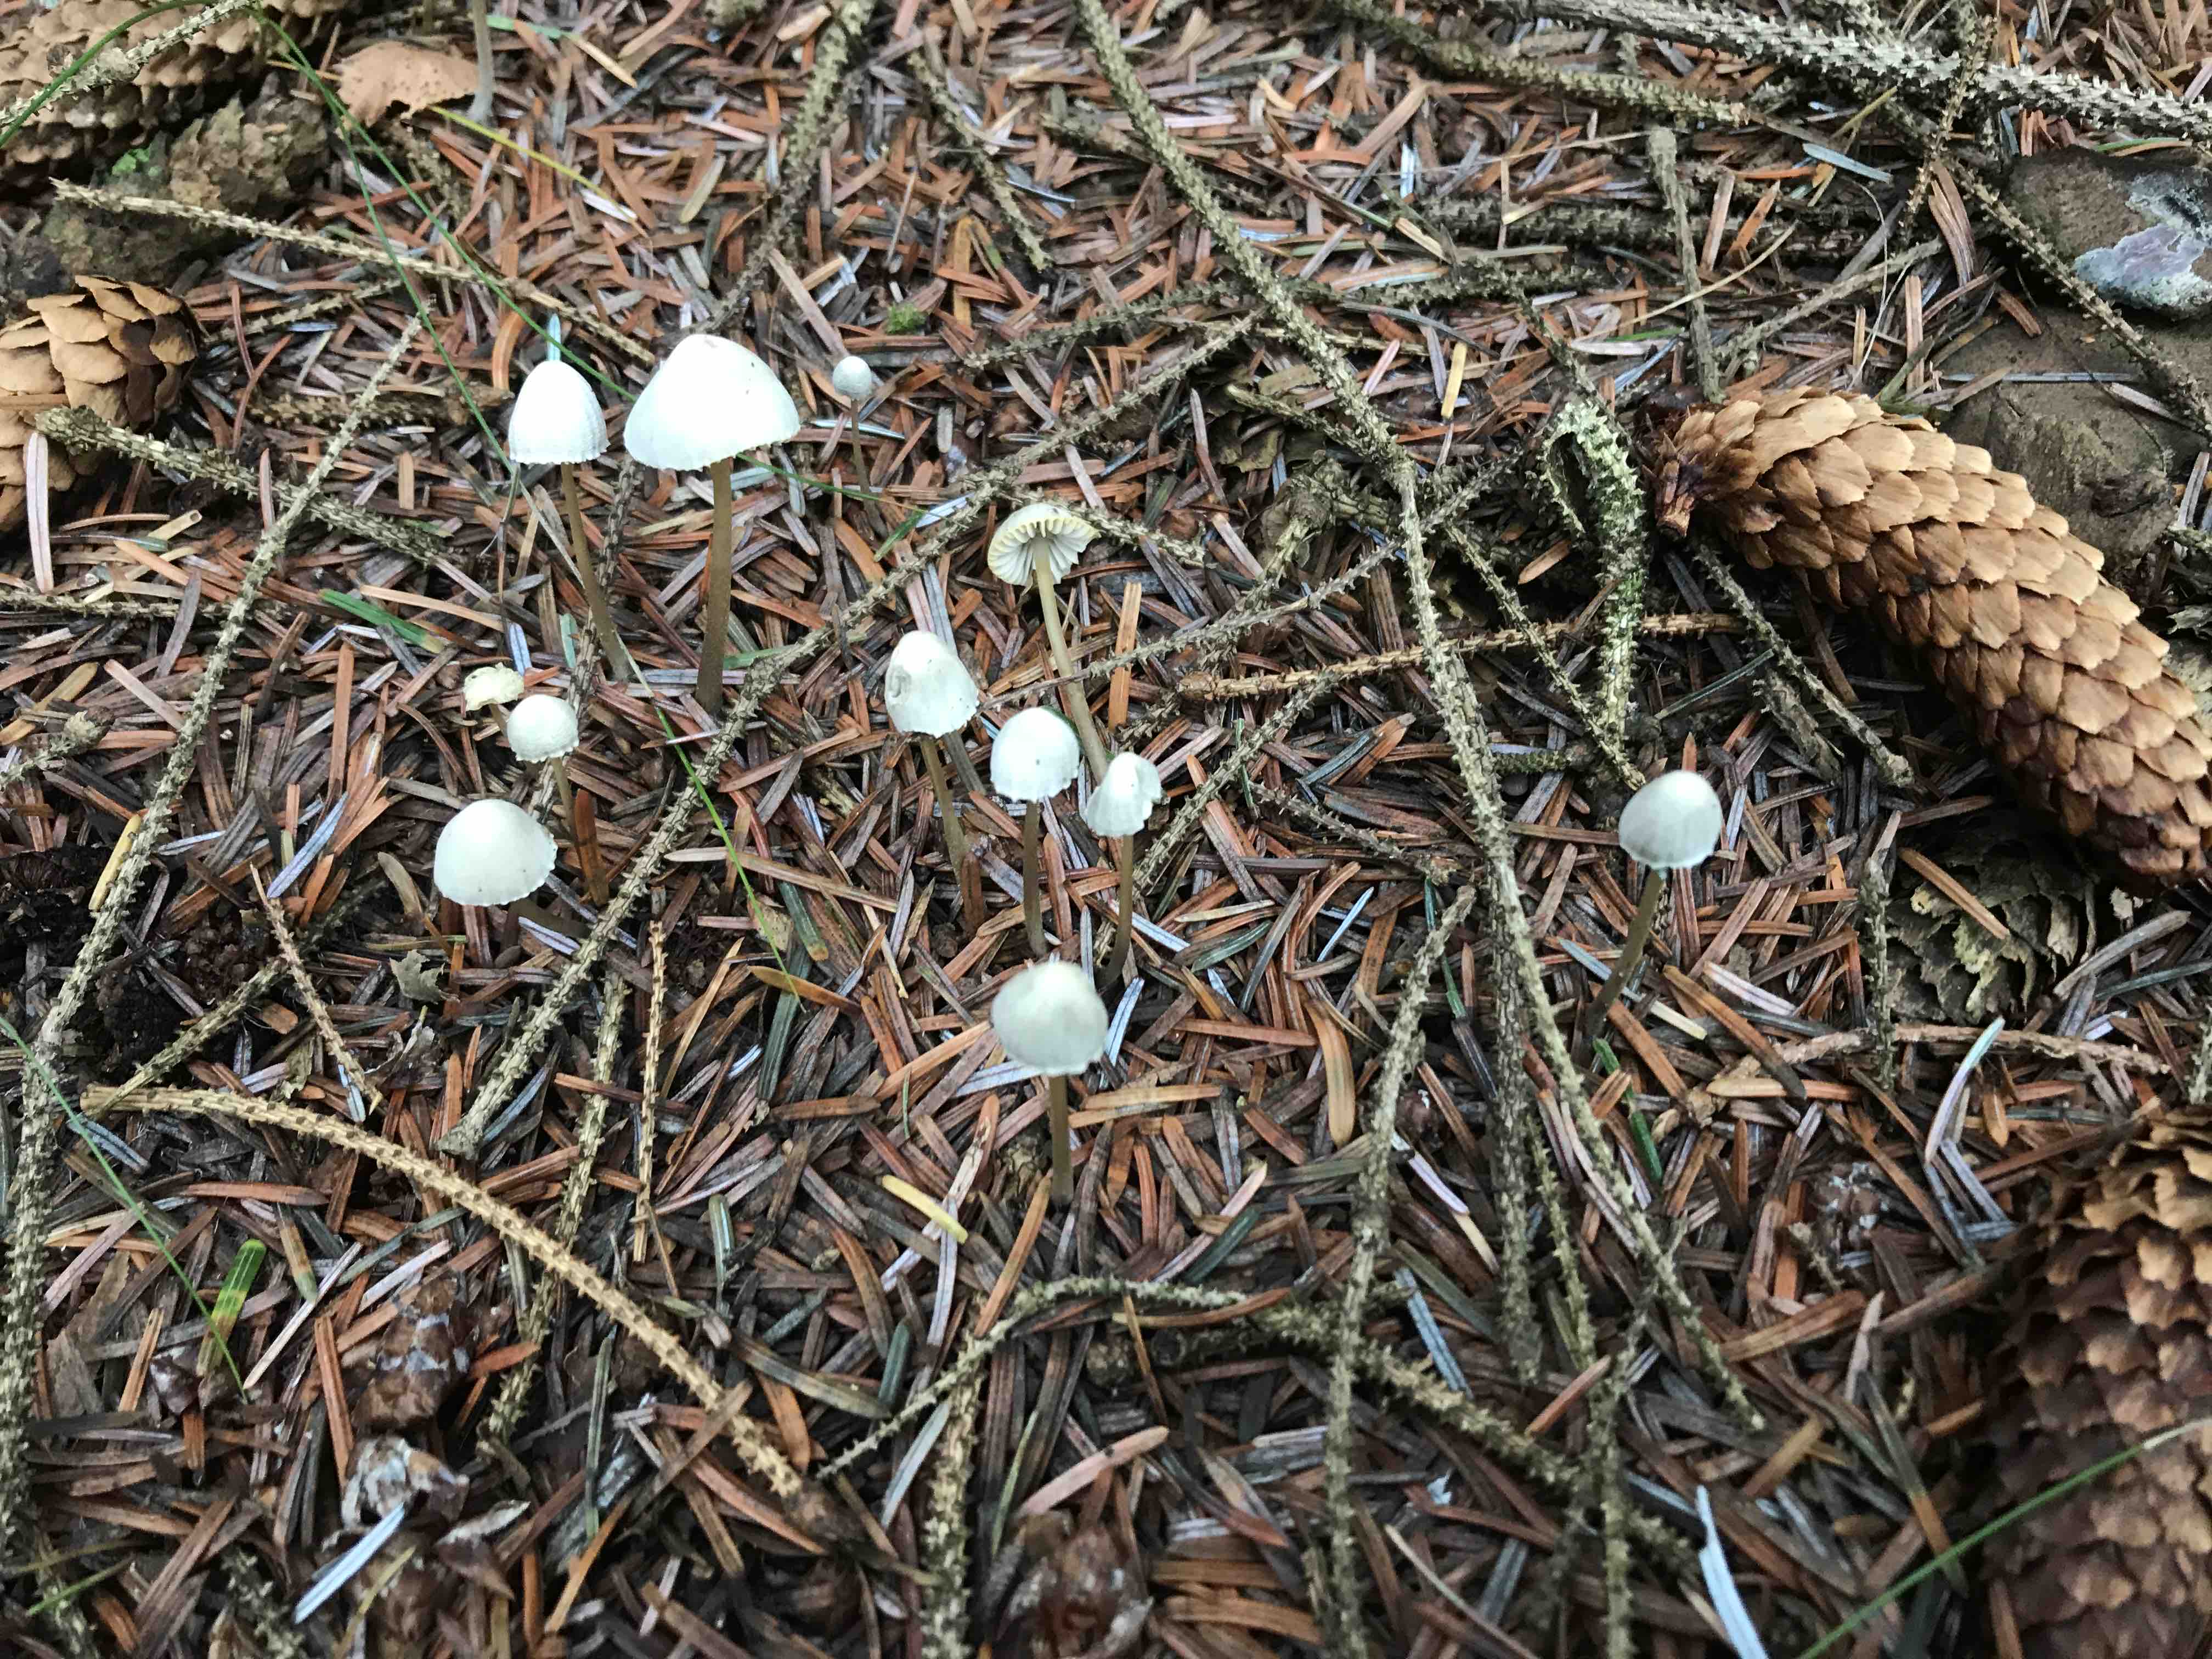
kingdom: Fungi
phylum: Basidiomycota
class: Agaricomycetes
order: Agaricales
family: Mycenaceae
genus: Mycena
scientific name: Mycena
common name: huesvamp
